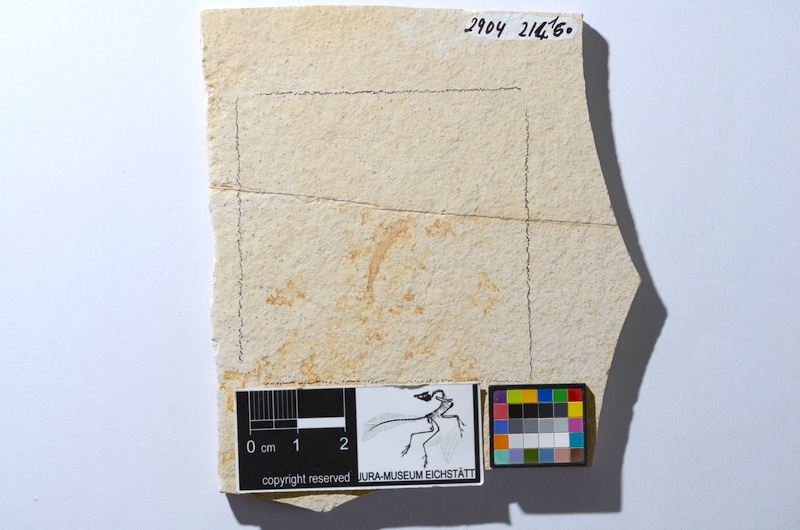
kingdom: Animalia
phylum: Chordata
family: Allothrissopidae
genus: Allothrissops
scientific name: Allothrissops mesogaster
